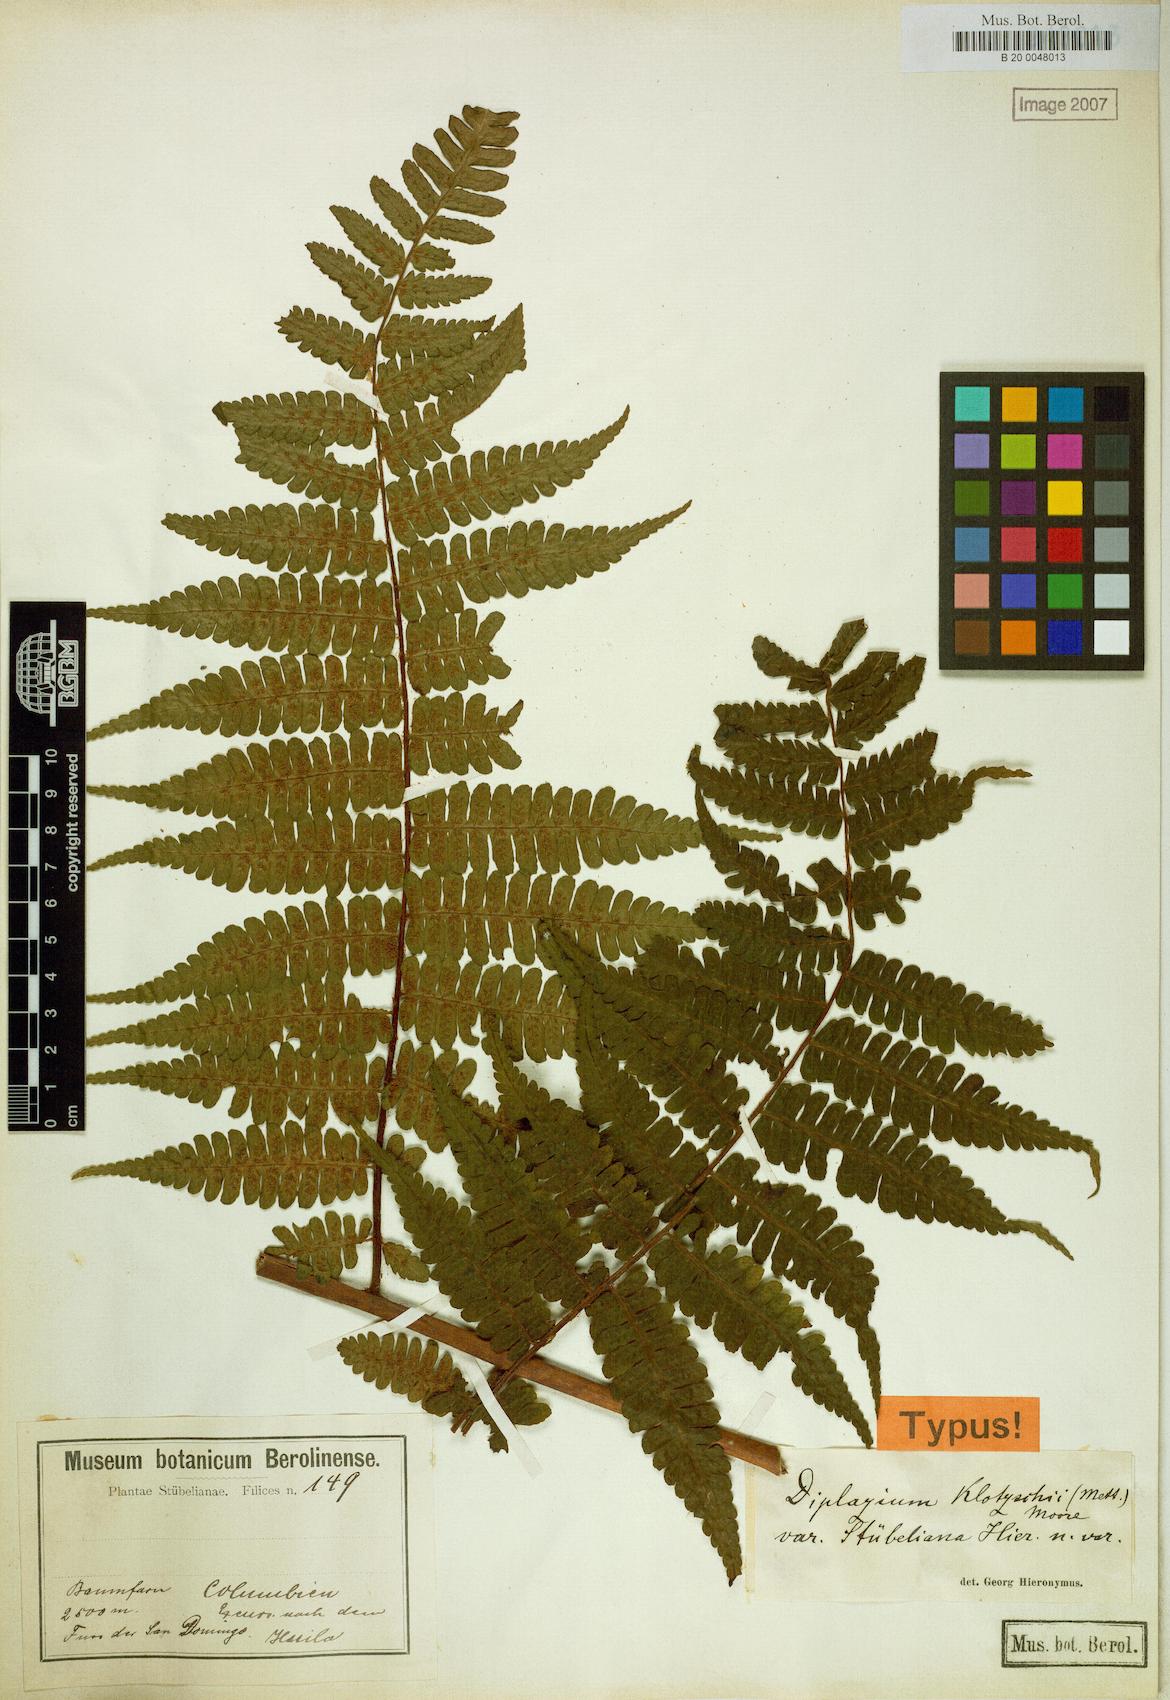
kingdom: Plantae
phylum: Tracheophyta
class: Polypodiopsida
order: Polypodiales
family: Athyriaceae
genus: Diplazium
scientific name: Diplazium diplazioides
